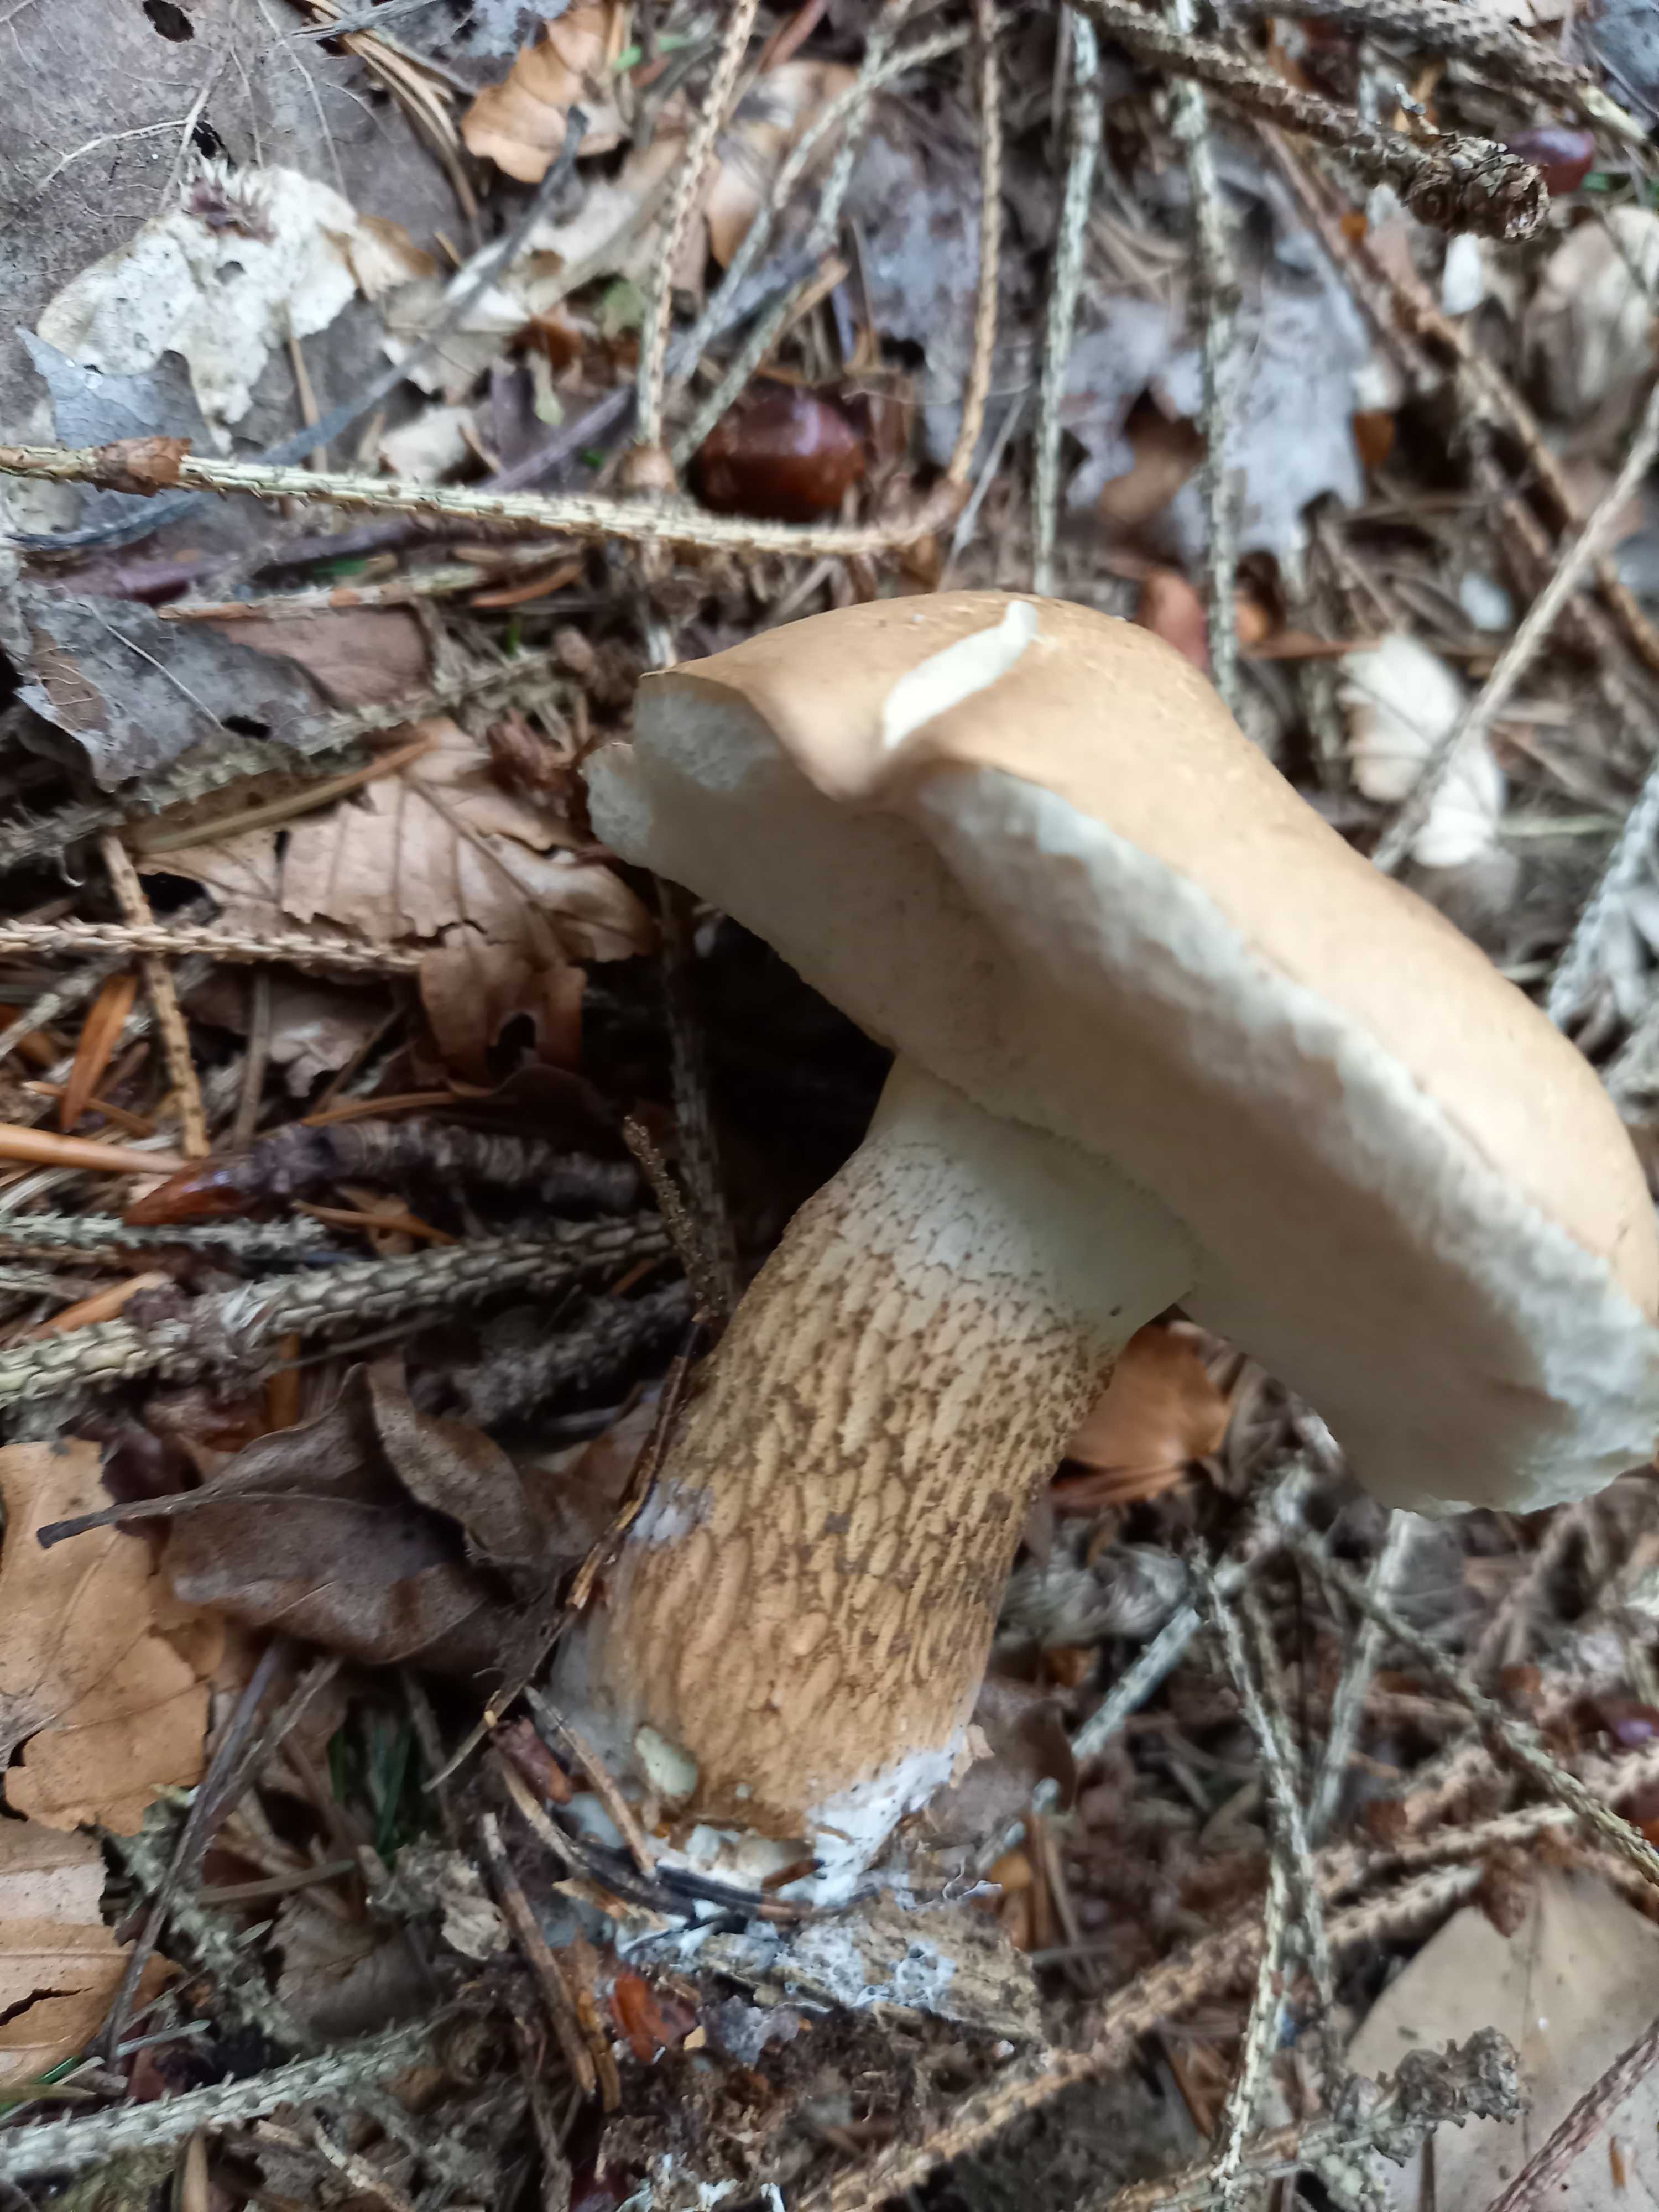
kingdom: Fungi
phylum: Basidiomycota
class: Agaricomycetes
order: Boletales
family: Boletaceae
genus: Tylopilus
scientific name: Tylopilus felleus
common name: galderørhat
